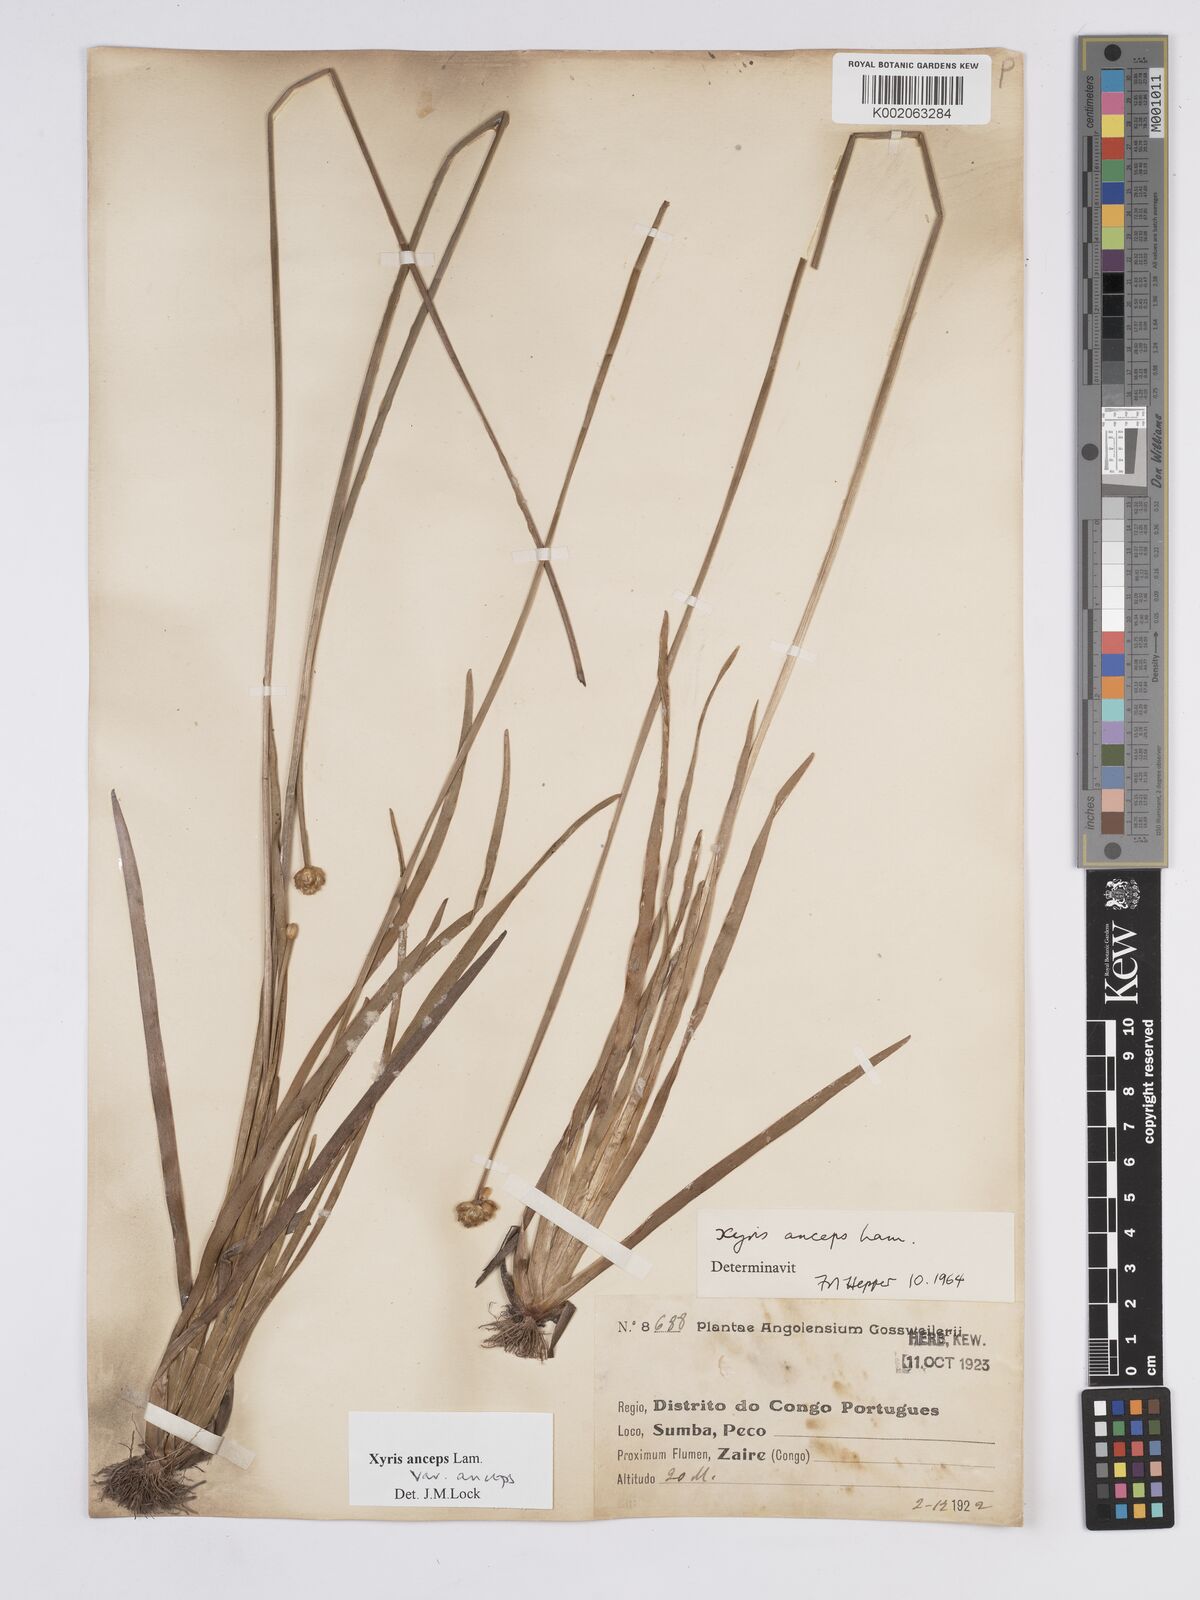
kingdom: Plantae
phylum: Tracheophyta
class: Liliopsida
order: Poales
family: Xyridaceae
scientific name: Xyridaceae
